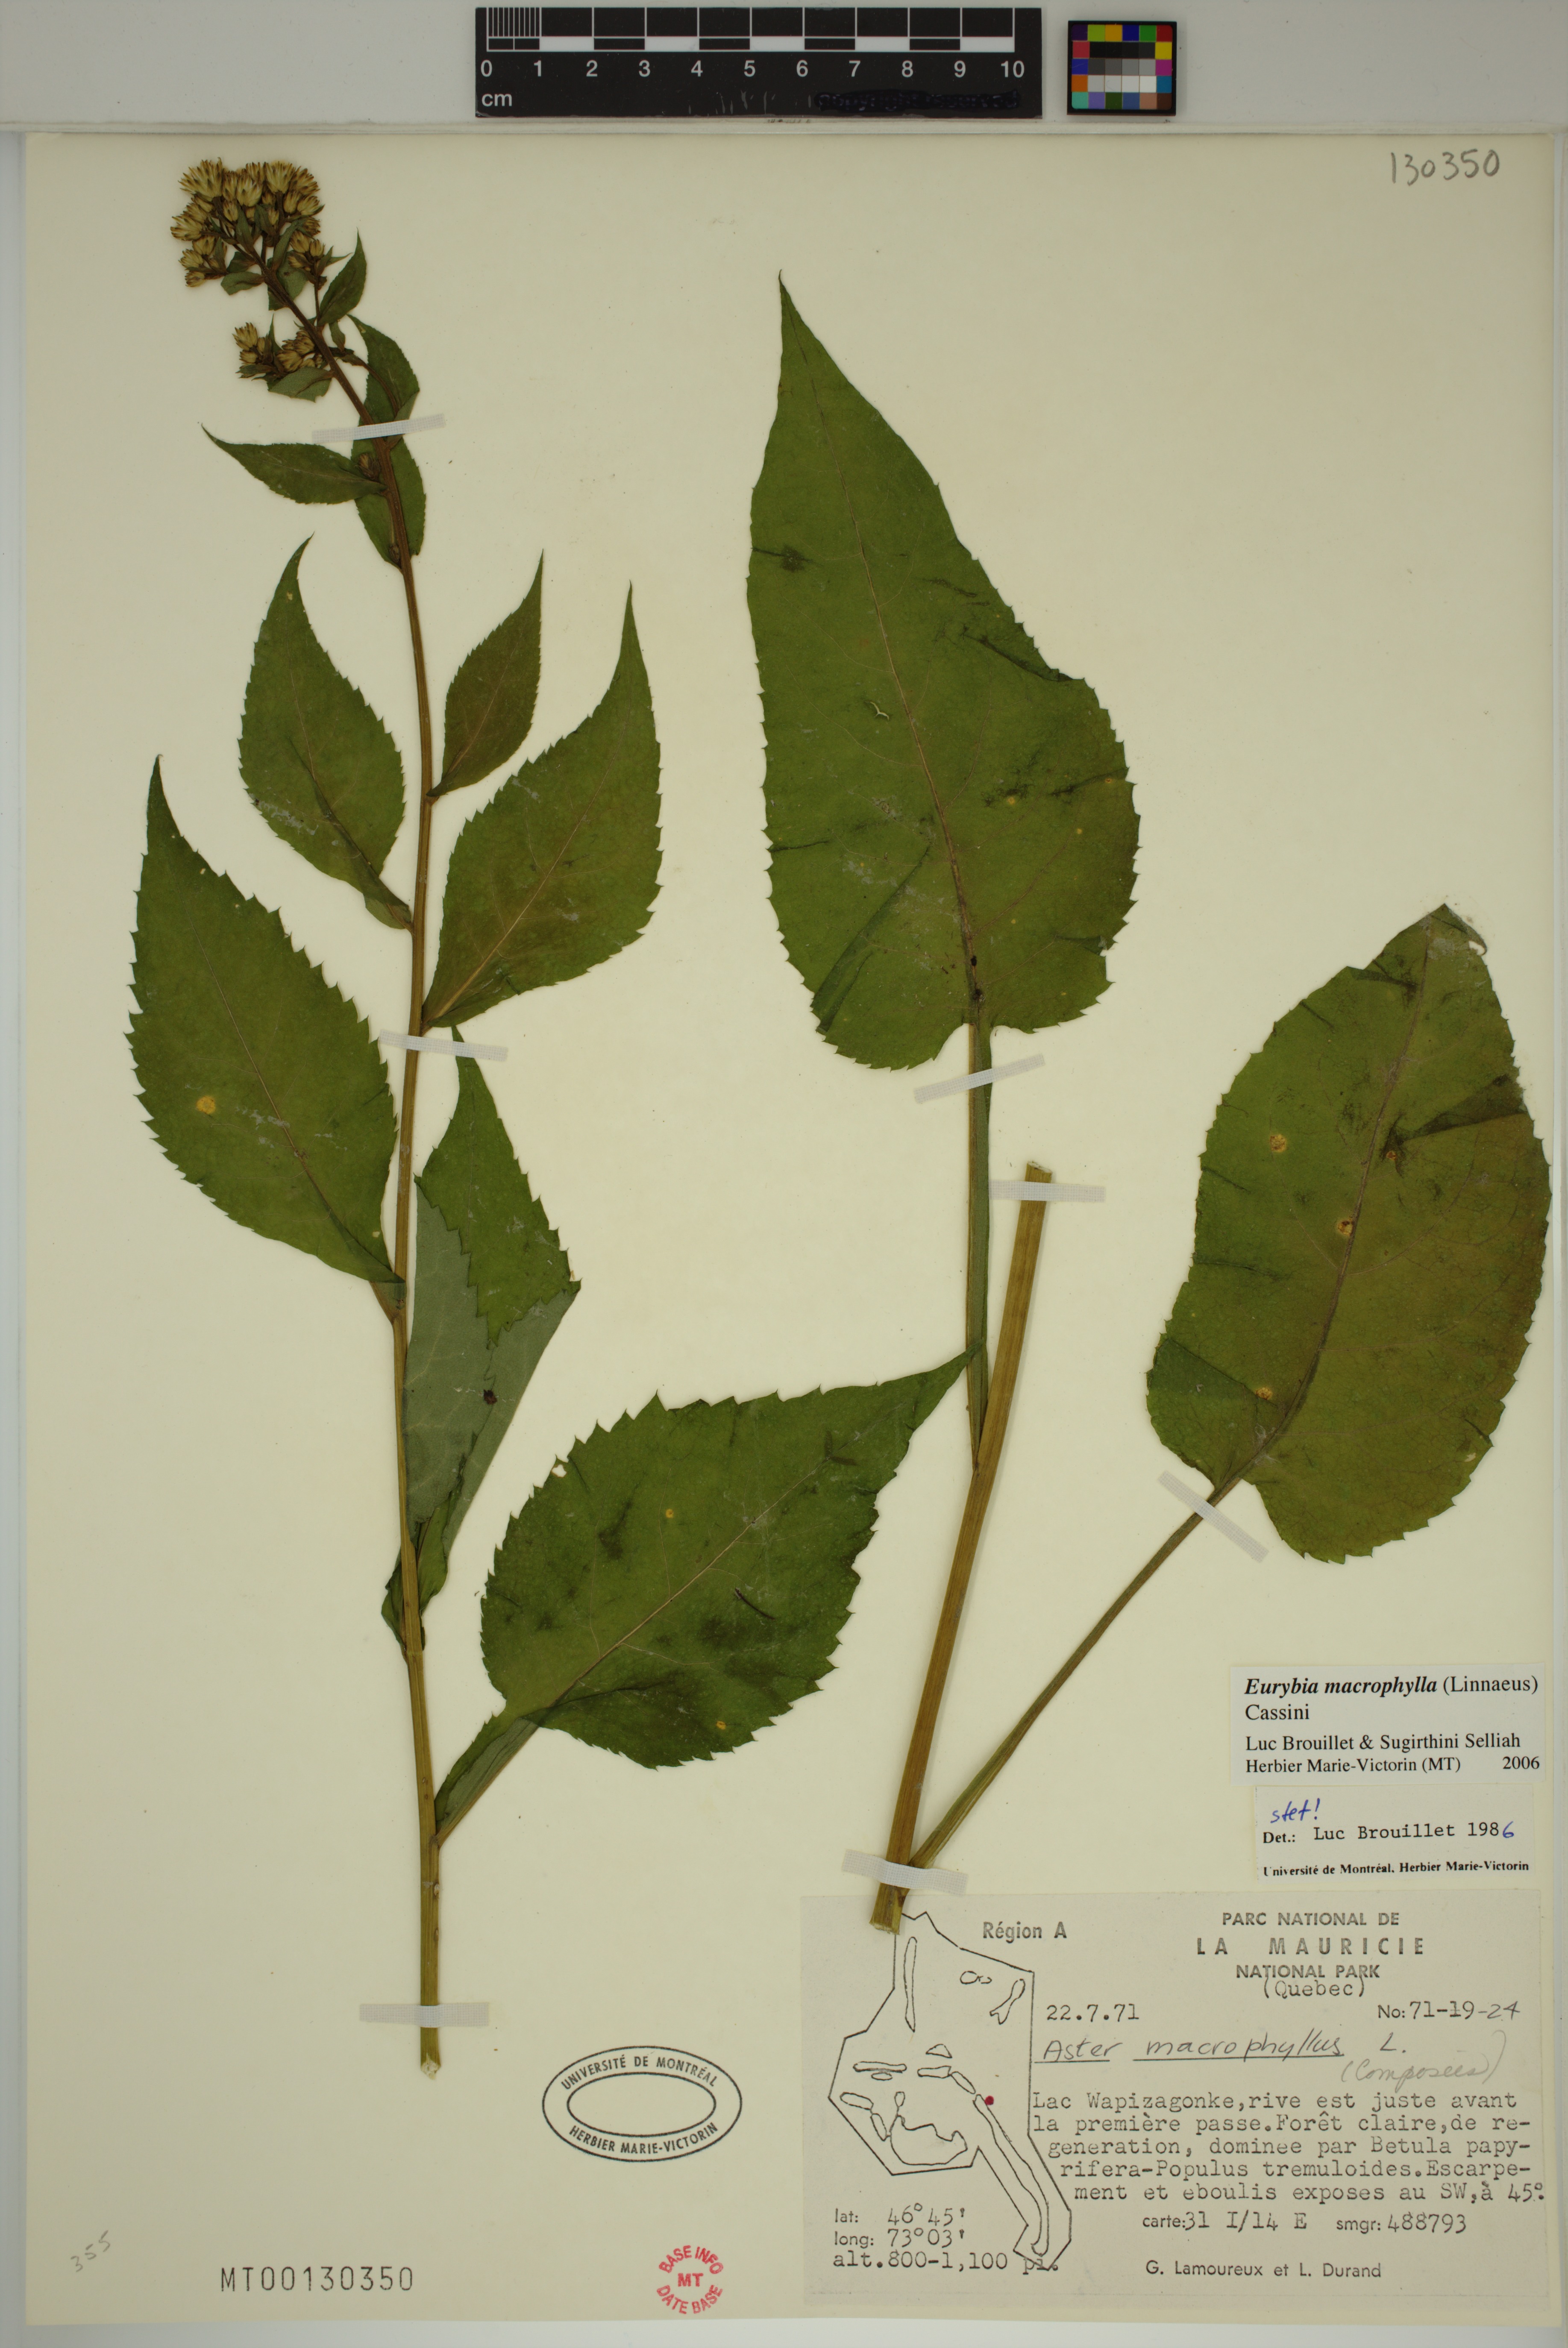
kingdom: Plantae
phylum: Tracheophyta
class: Magnoliopsida
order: Asterales
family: Asteraceae
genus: Eurybia
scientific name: Eurybia macrophylla
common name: Big-leaved aster
